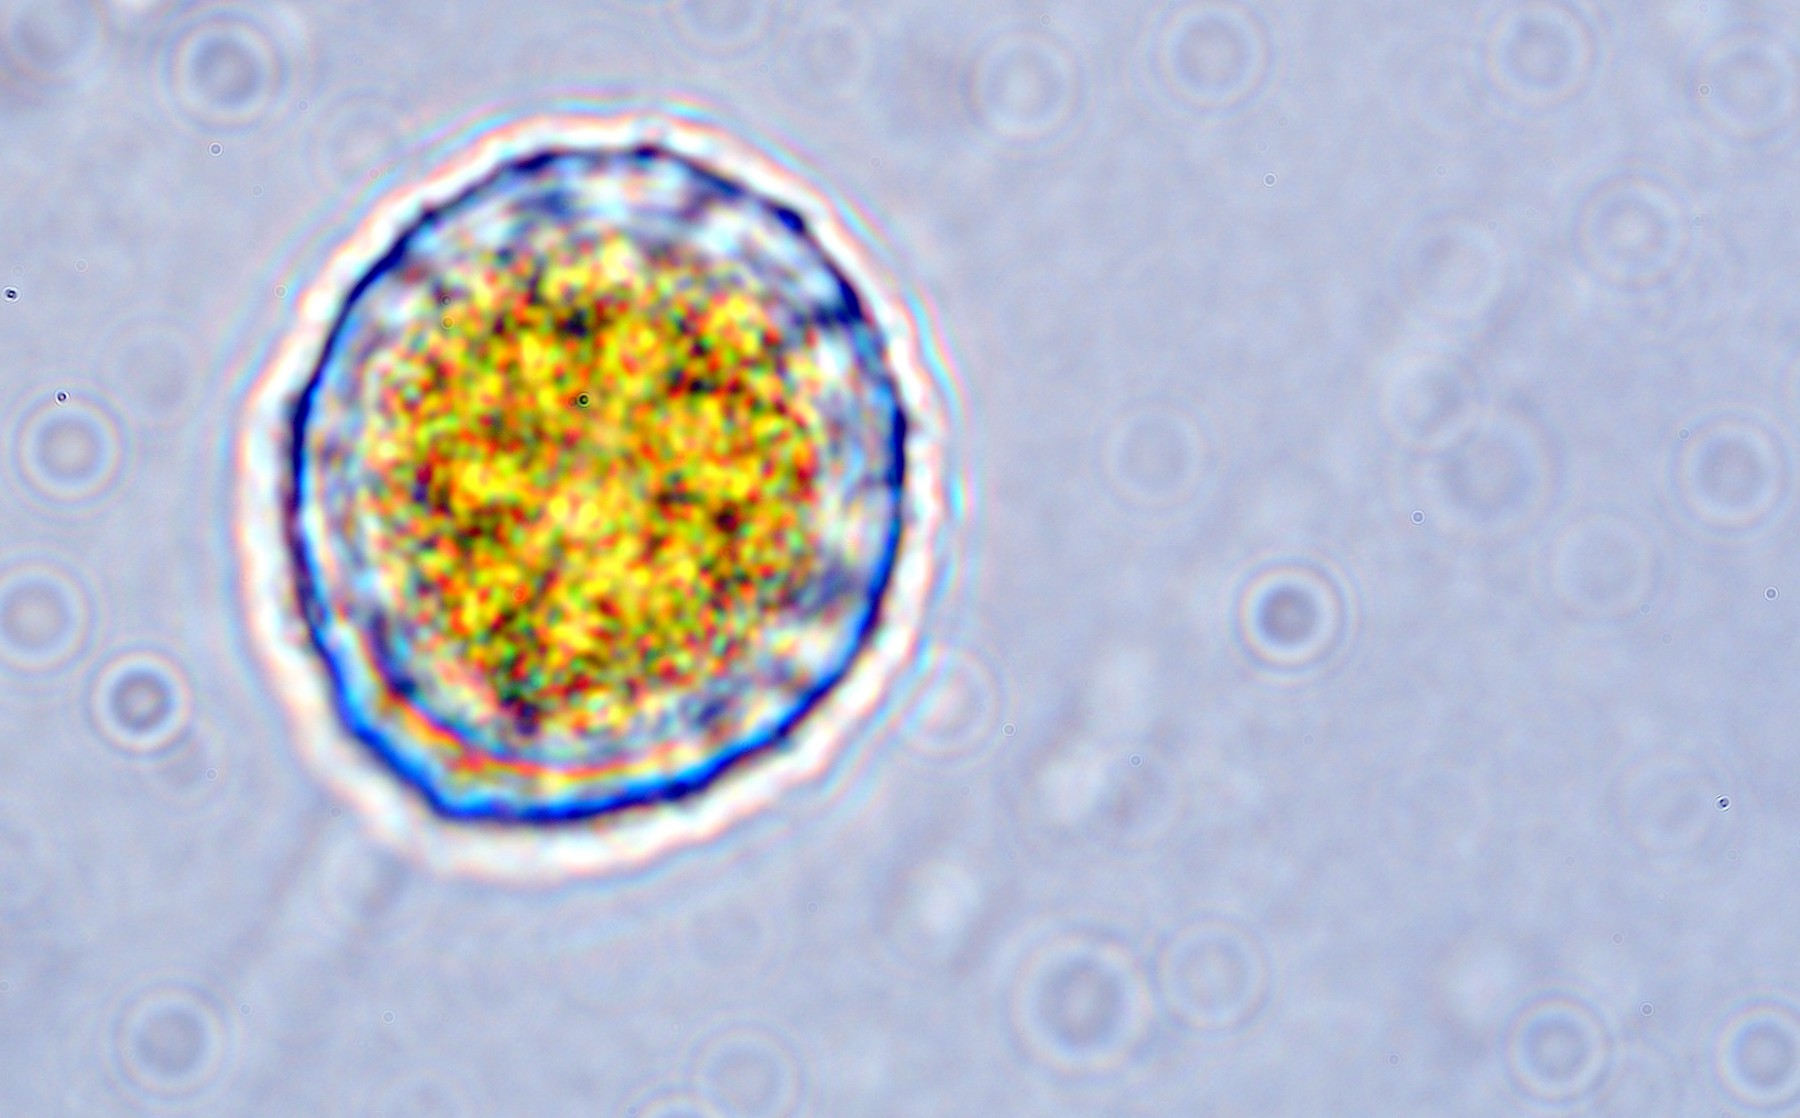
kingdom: Fungi
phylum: Basidiomycota
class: Pucciniomycetes
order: Pucciniales
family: Phragmidiaceae
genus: Phragmidium
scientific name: Phragmidium rubi-idaei
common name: hindbær-flercellerust
